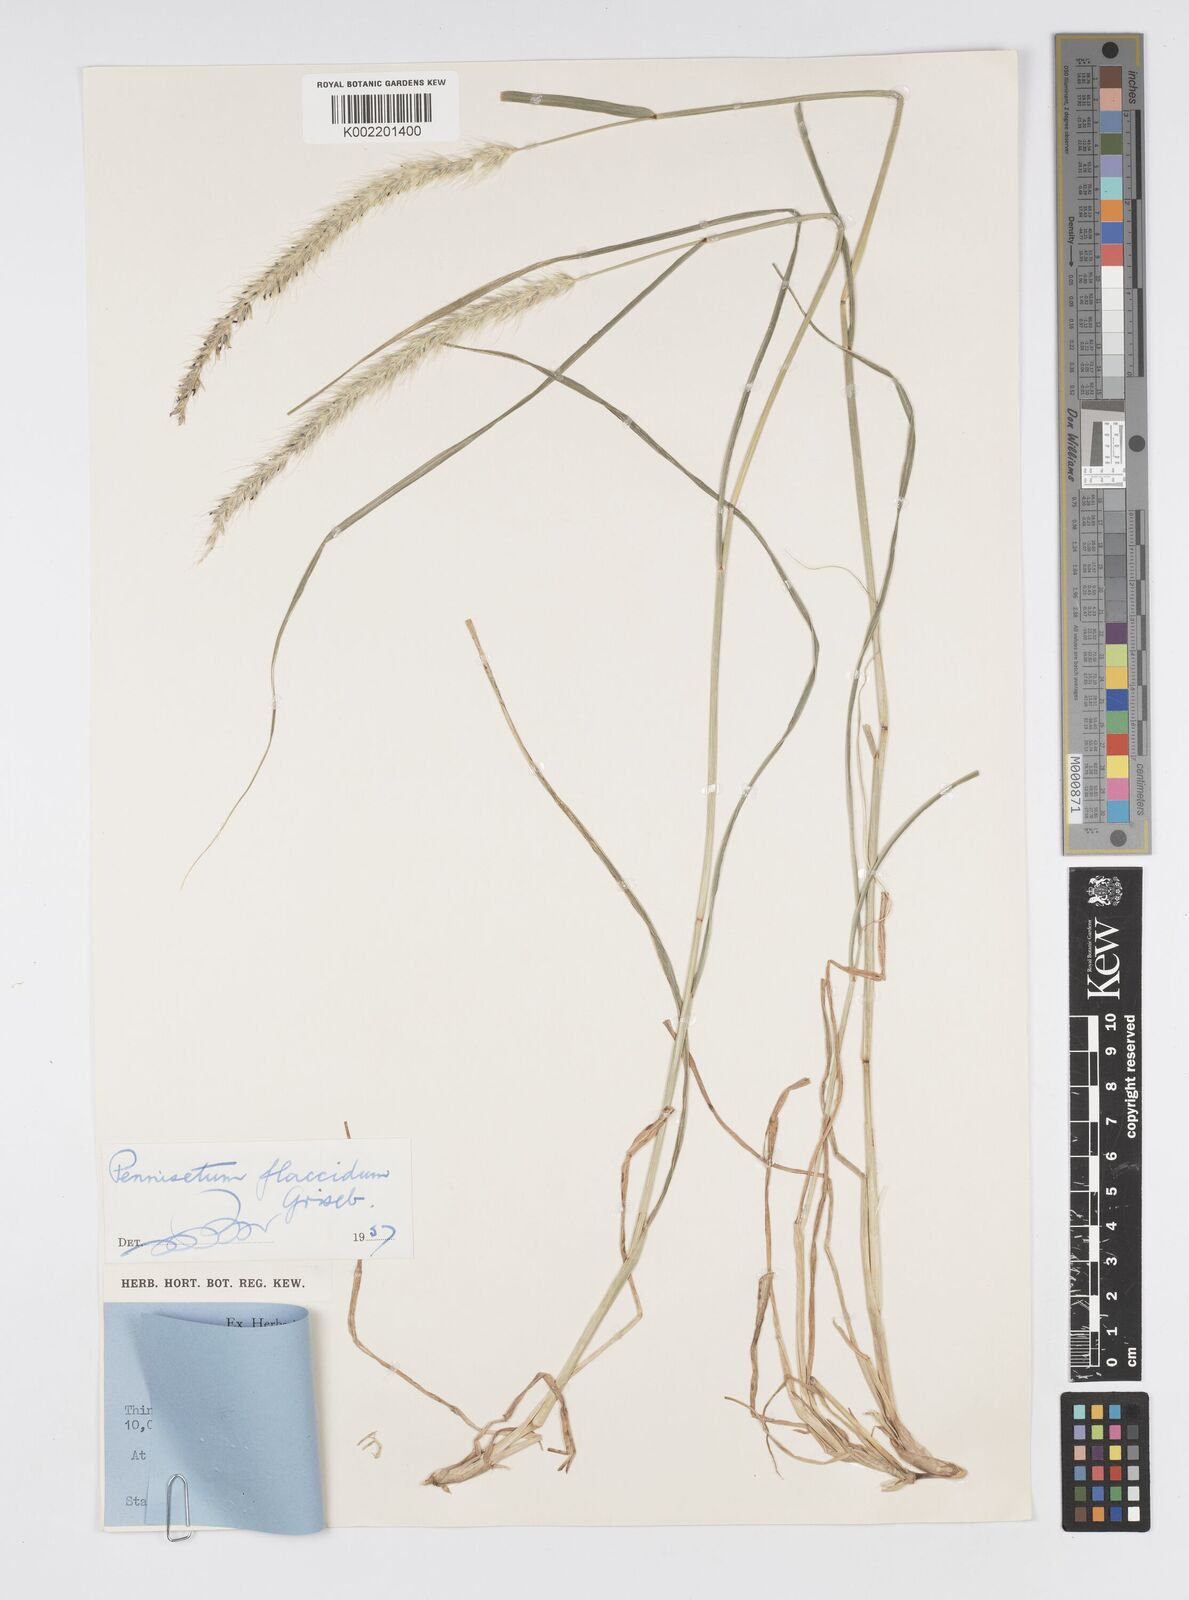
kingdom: Plantae
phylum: Tracheophyta
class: Liliopsida
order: Poales
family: Poaceae
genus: Cenchrus
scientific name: Cenchrus flaccidus
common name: Flaccid grass
